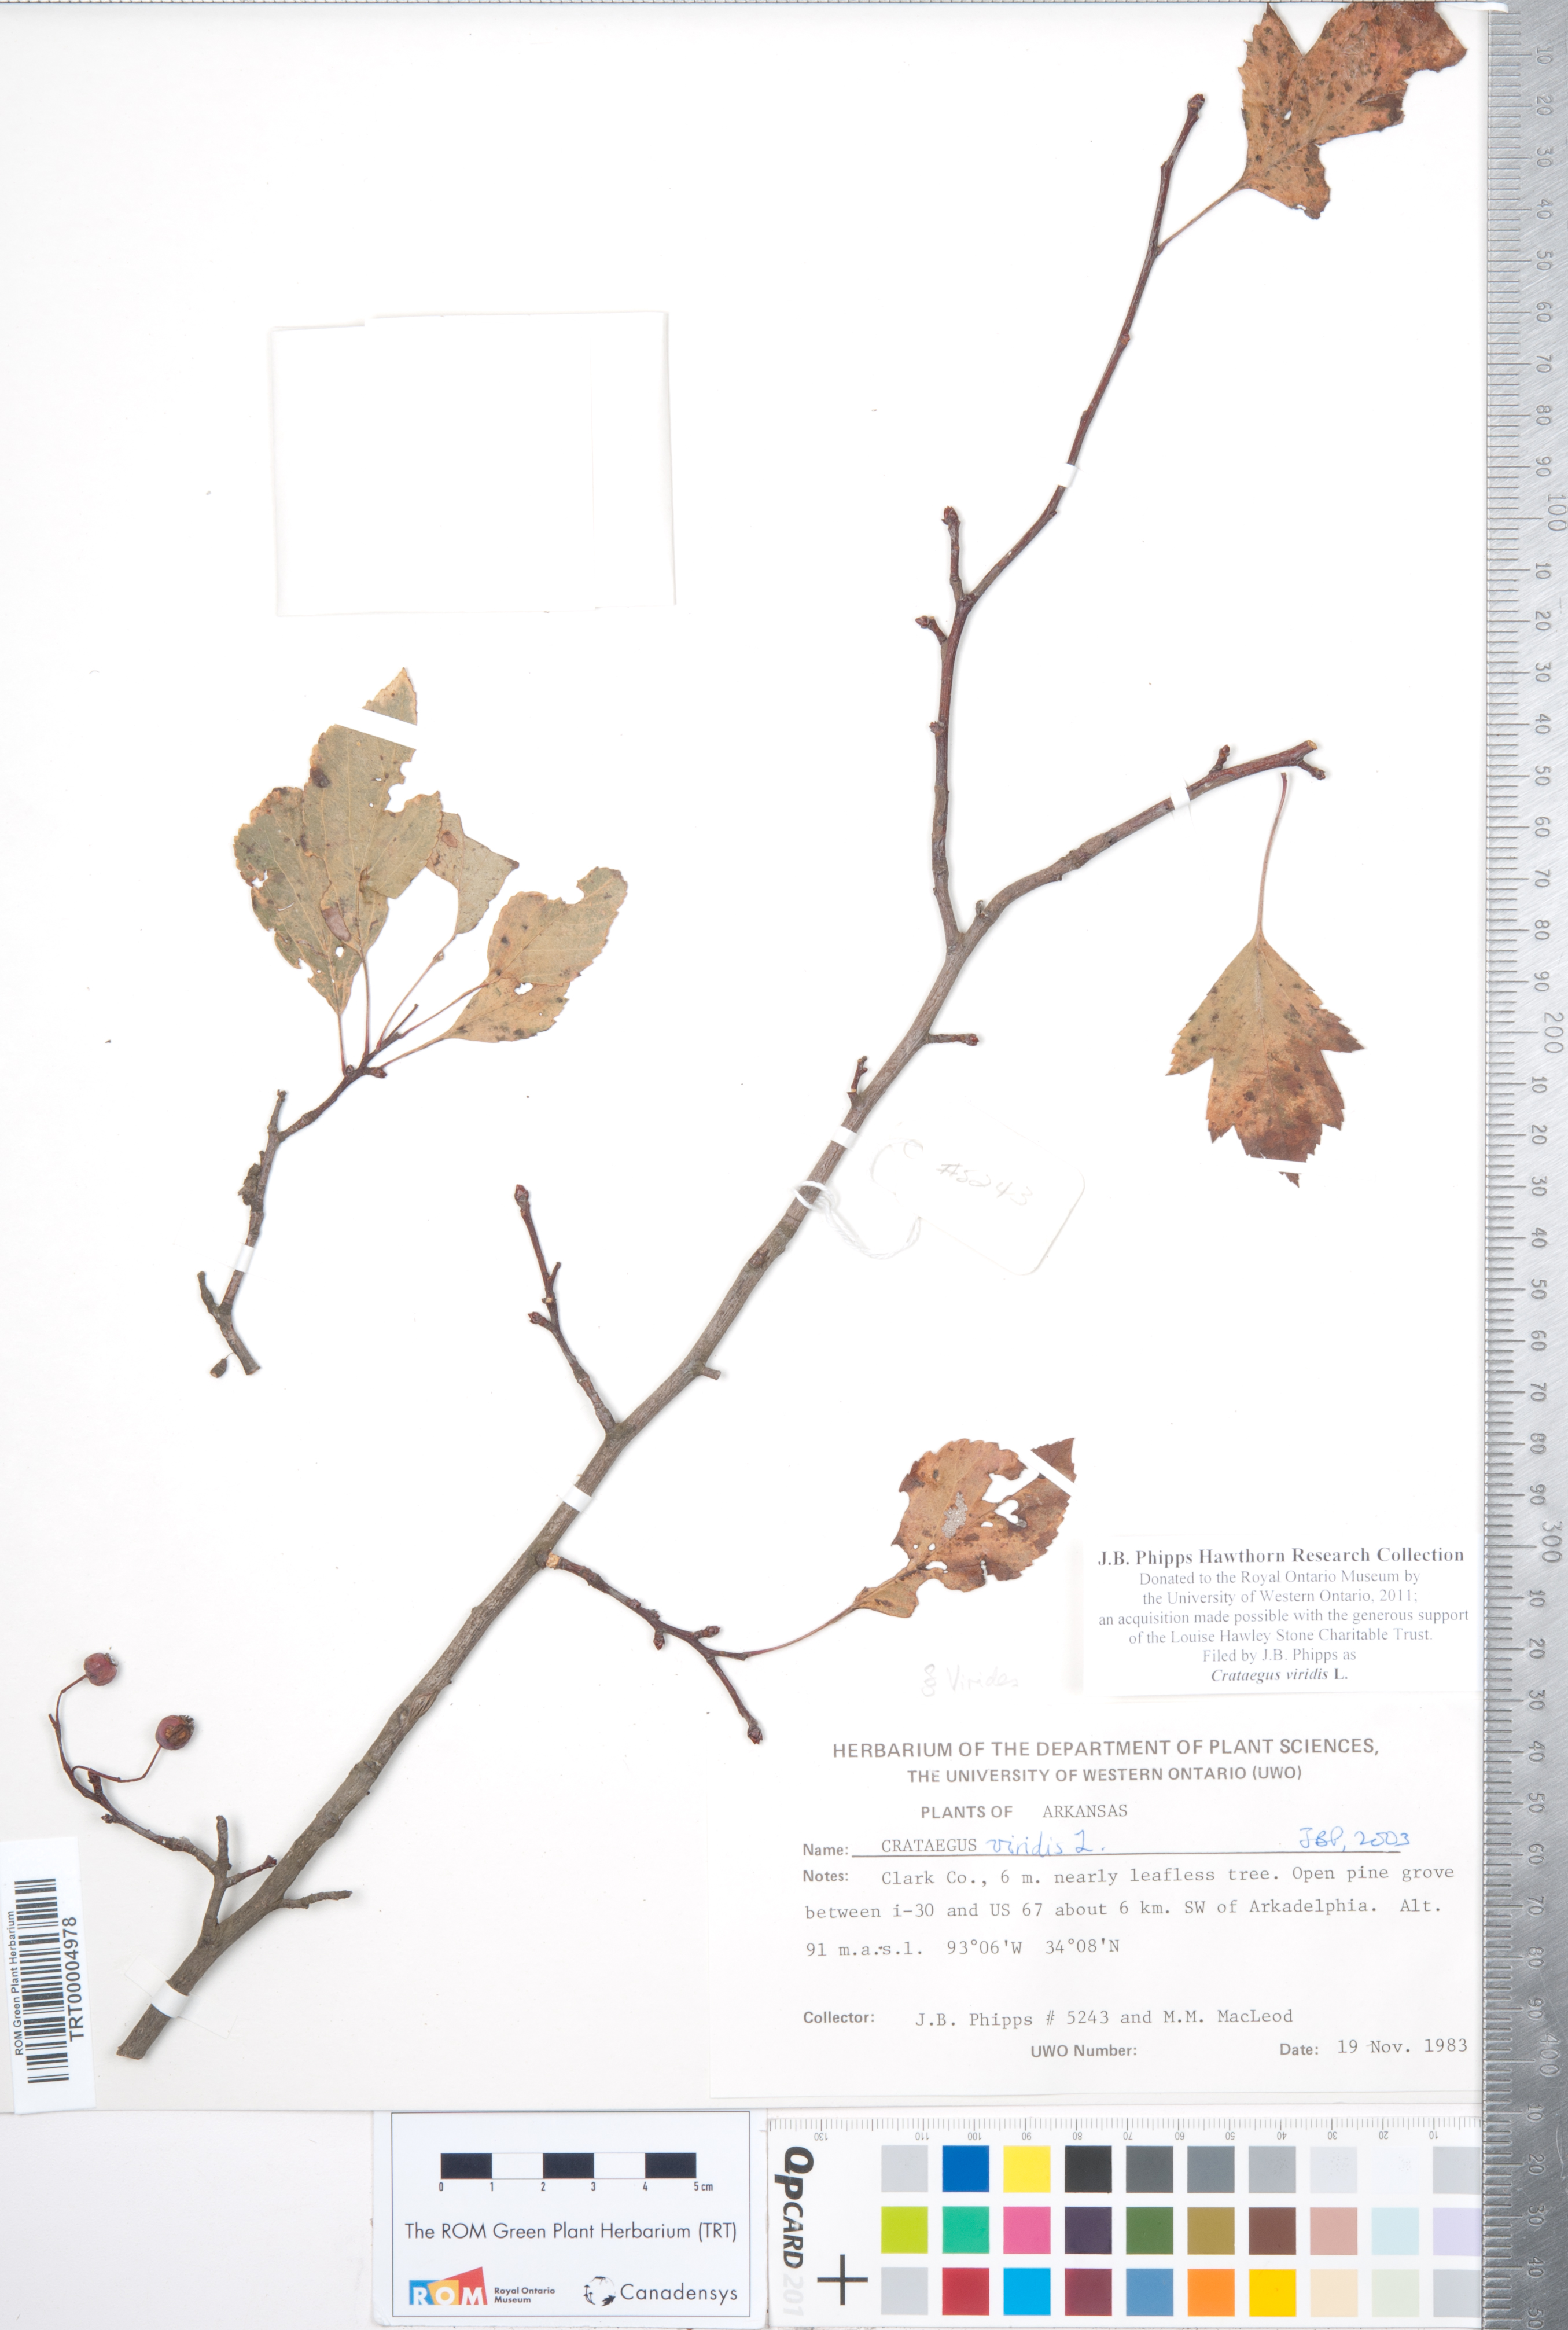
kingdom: Plantae
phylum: Tracheophyta
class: Magnoliopsida
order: Rosales
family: Rosaceae
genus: Crataegus
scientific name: Crataegus viridis
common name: Southernthorn
